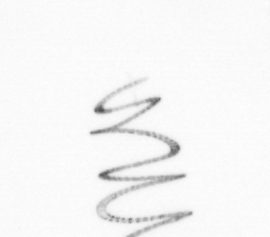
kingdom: Chromista
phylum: Ochrophyta
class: Bacillariophyceae
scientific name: Bacillariophyceae
